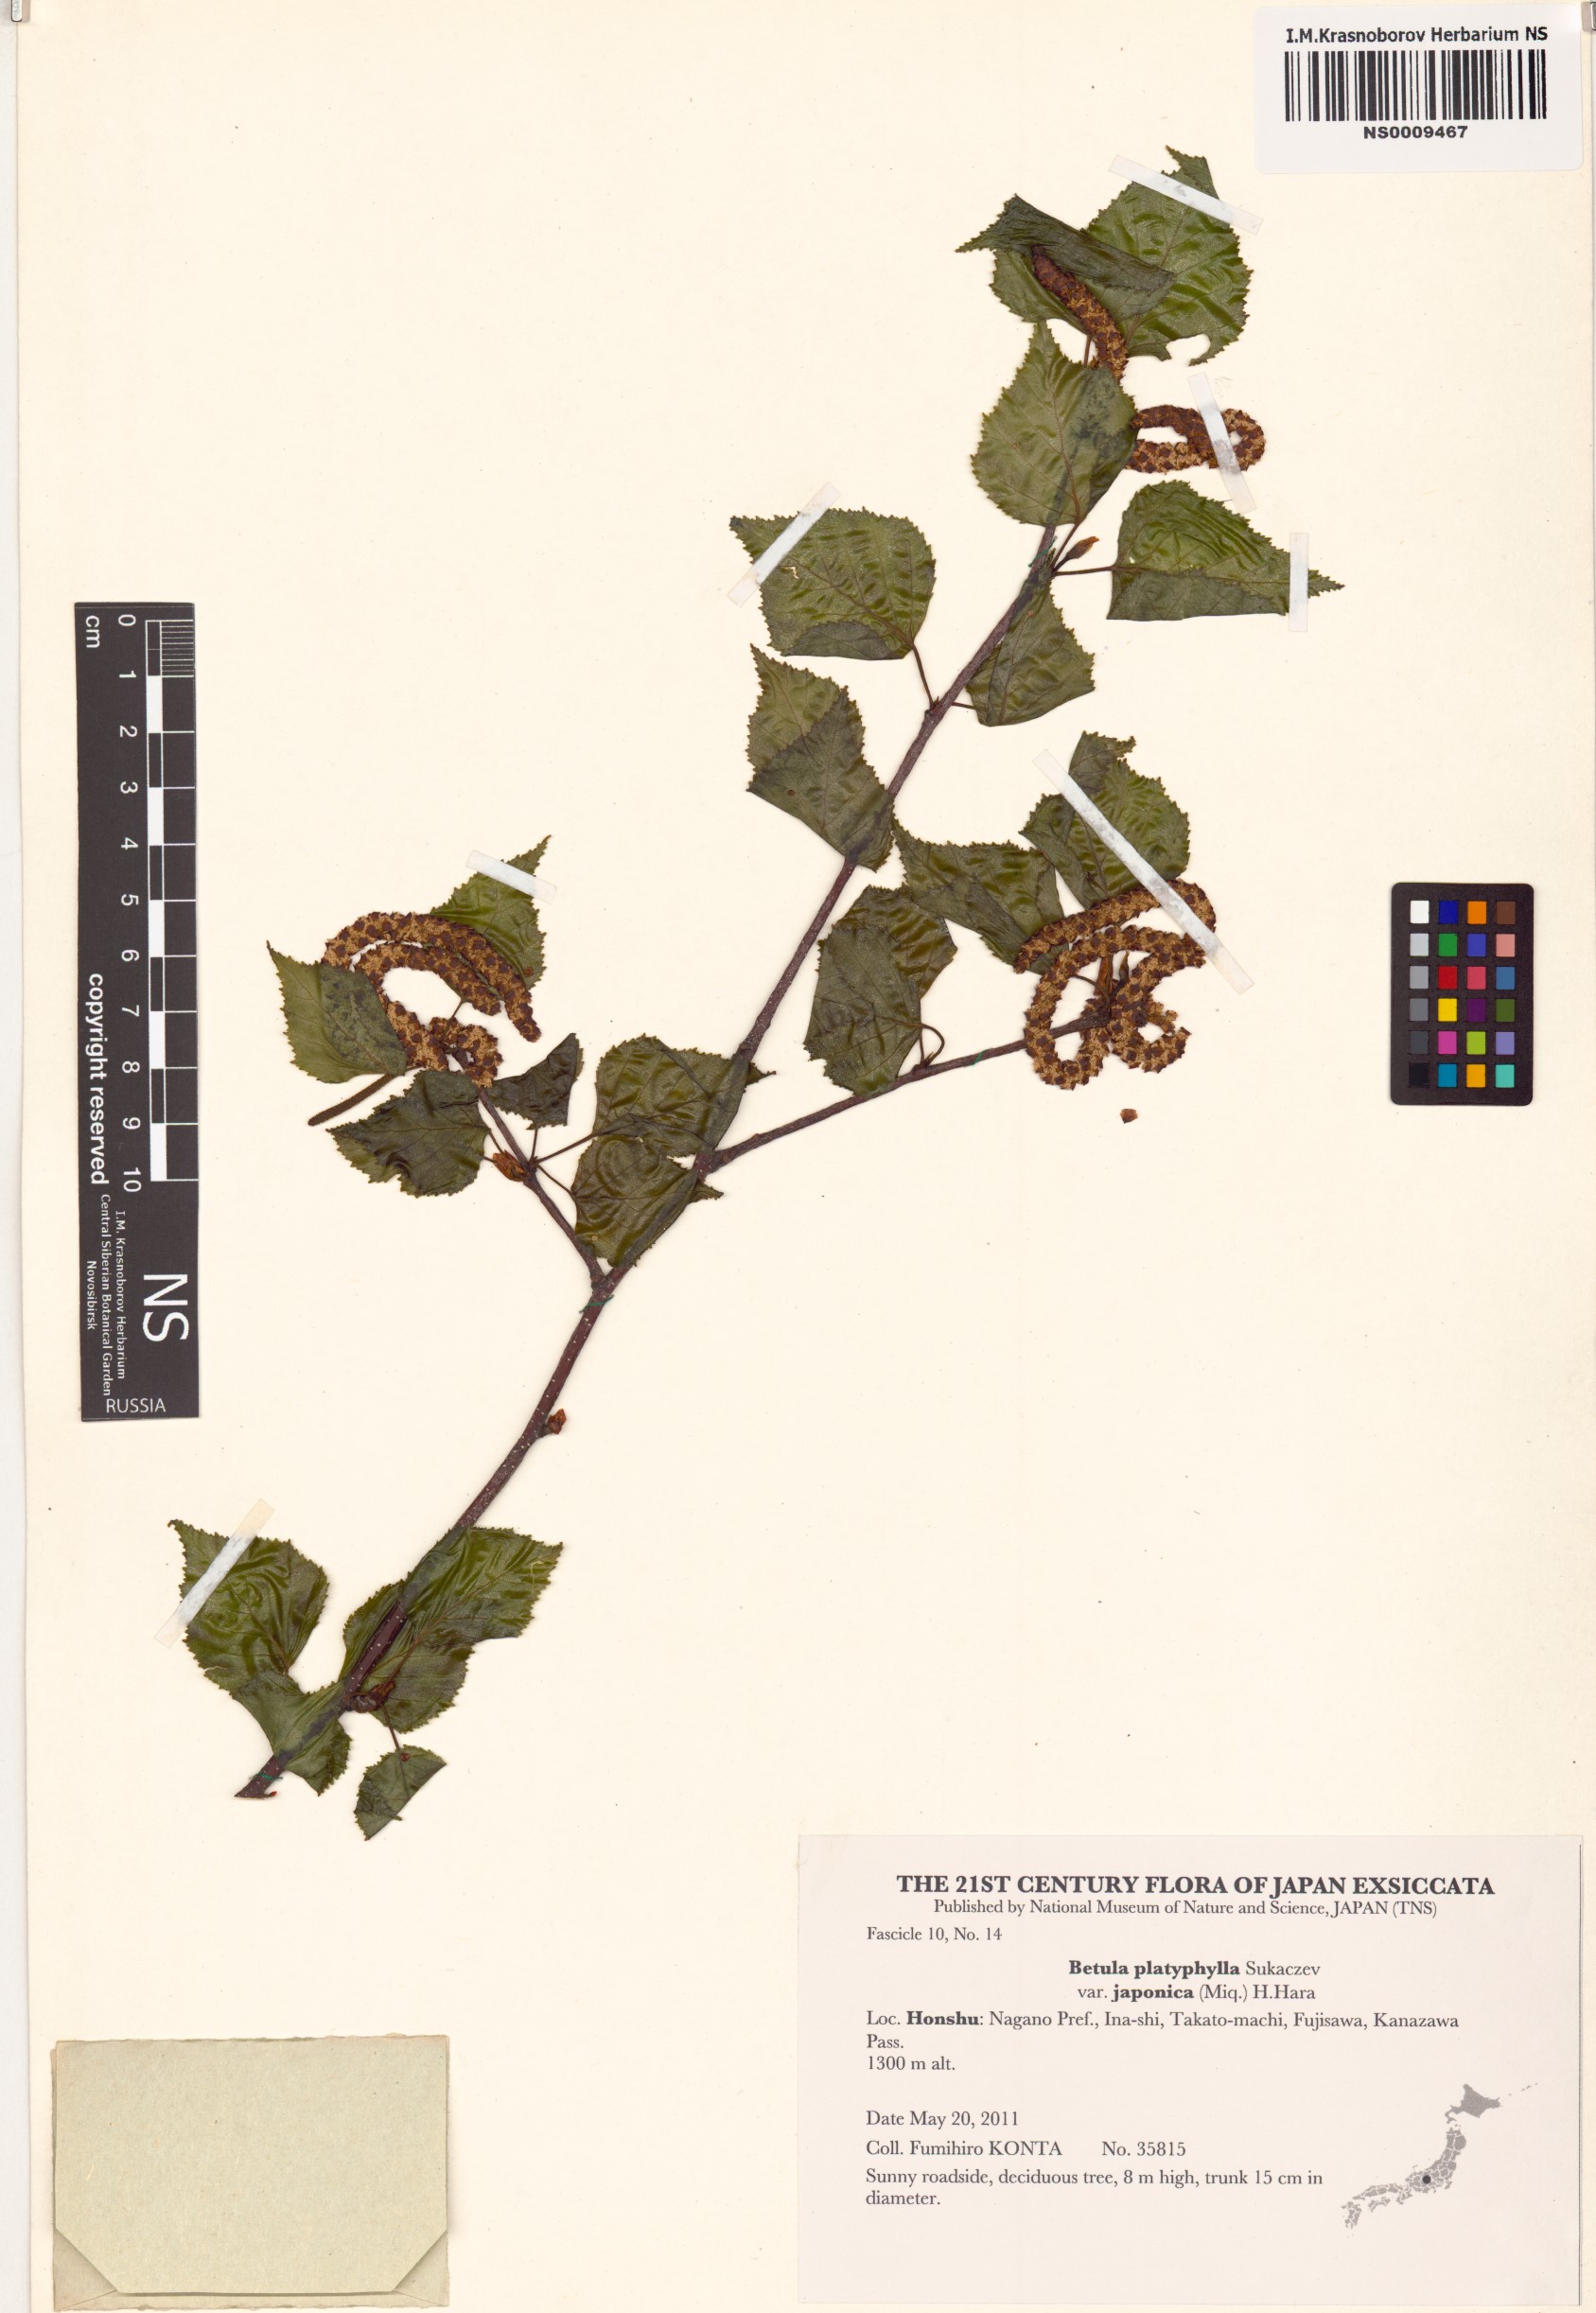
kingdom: Plantae
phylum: Tracheophyta
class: Magnoliopsida
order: Fagales
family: Betulaceae
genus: Betula
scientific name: Betula pendula
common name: Silver birch
